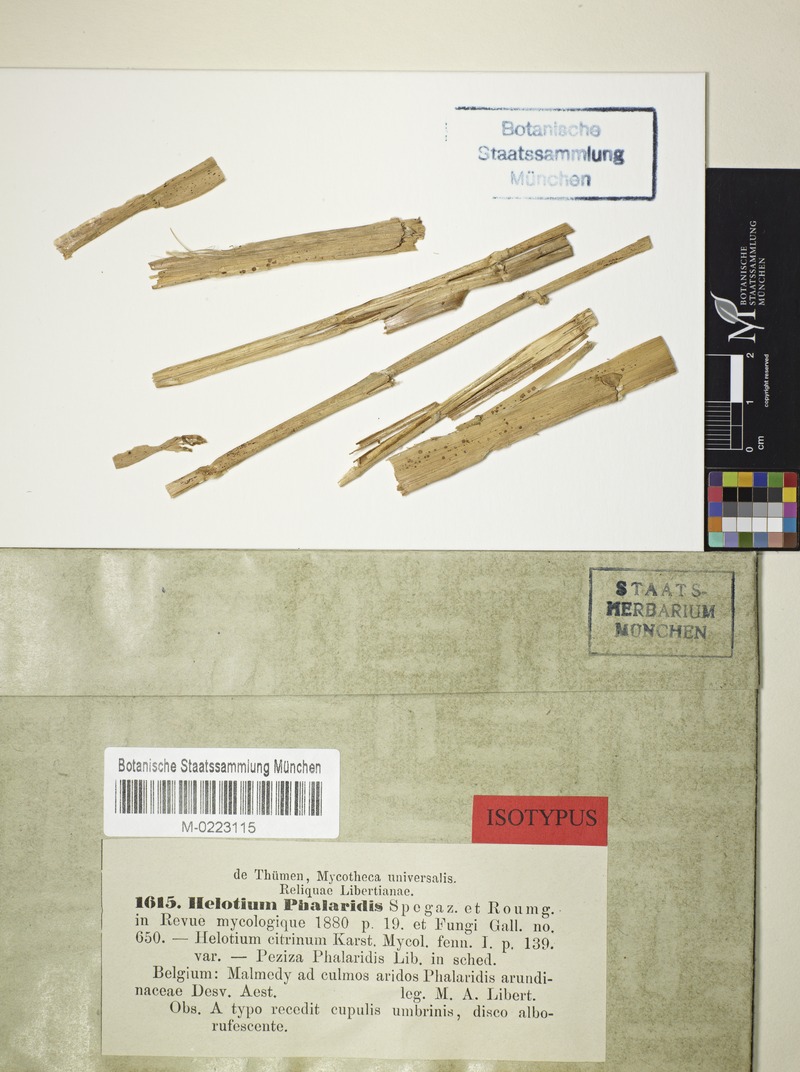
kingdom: Fungi
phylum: Ascomycota
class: Leotiomycetes
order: Helotiales
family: Pezizellaceae
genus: Calycellina
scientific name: Calycellina phalaridis
